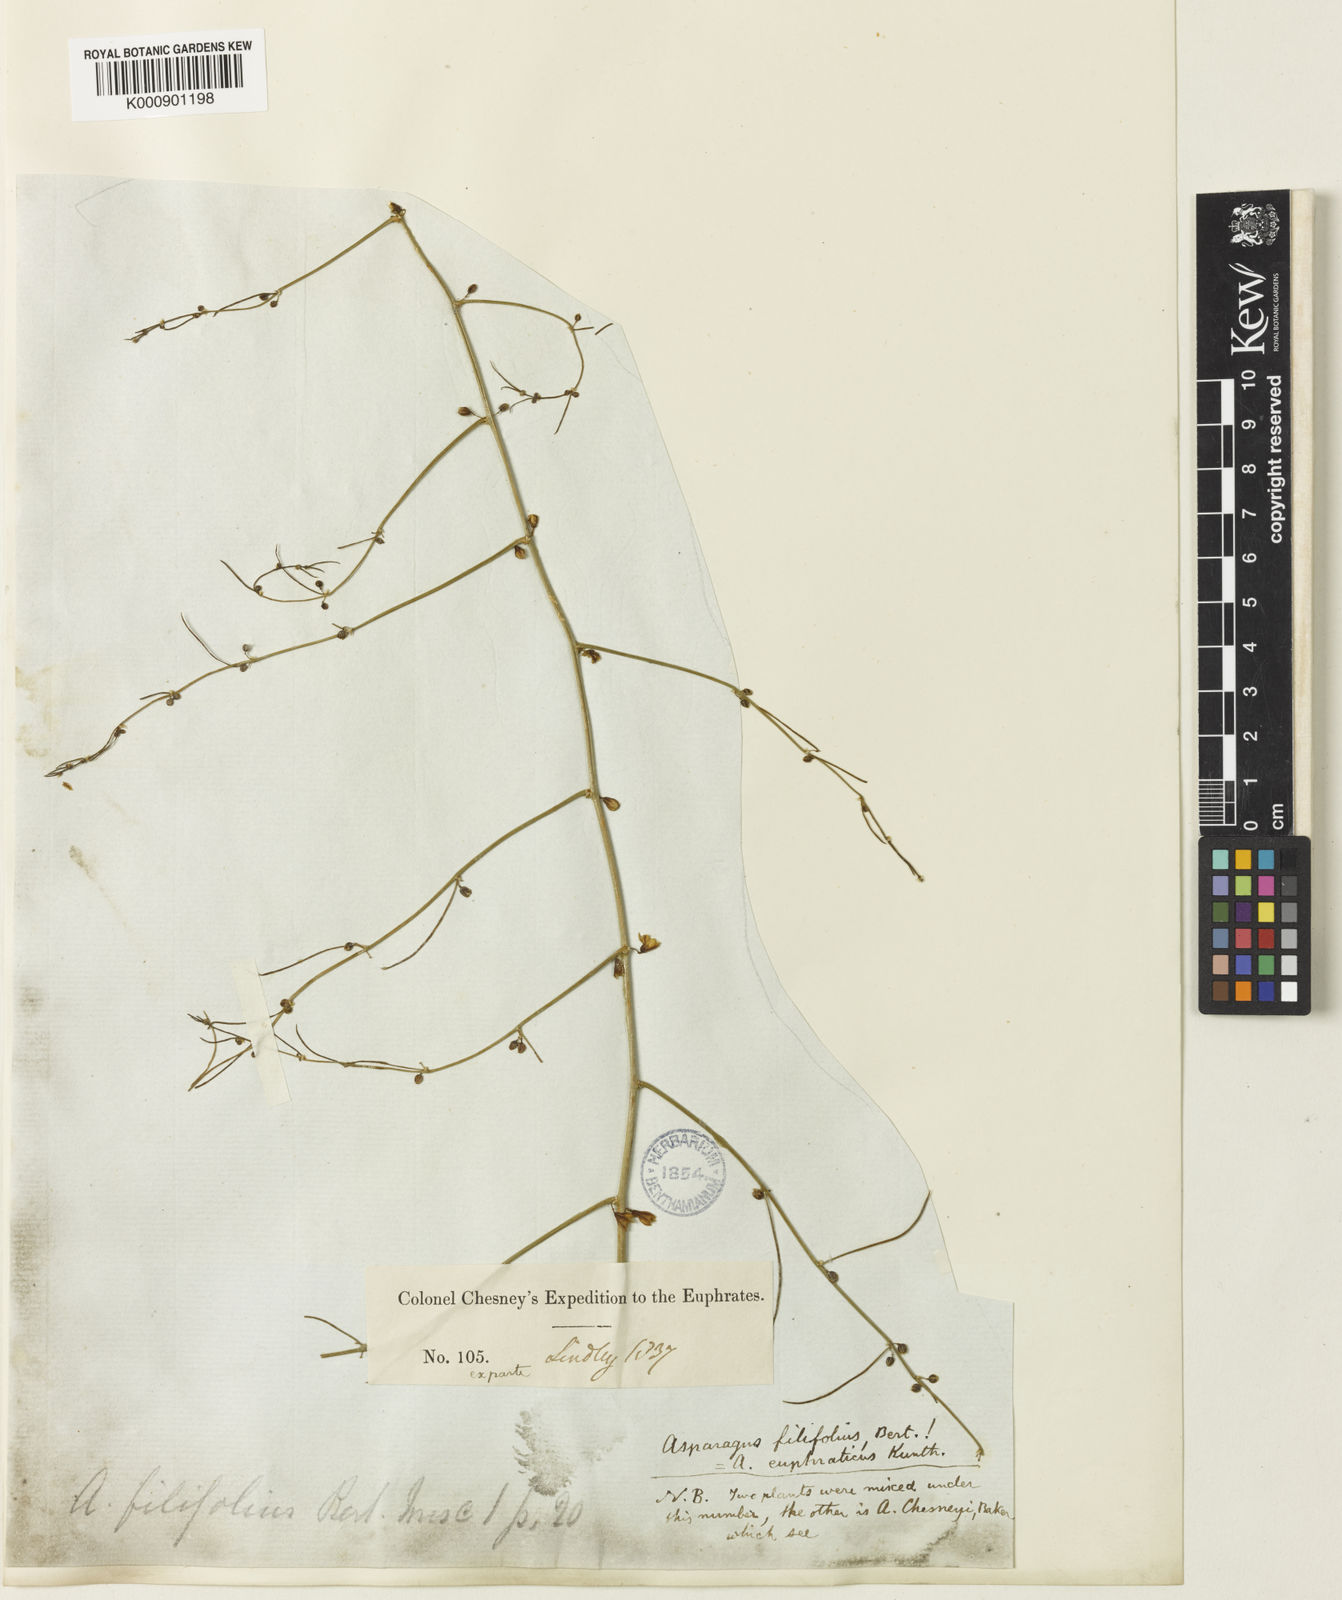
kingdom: Plantae
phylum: Tracheophyta
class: Liliopsida
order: Asparagales
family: Asparagaceae
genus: Asparagus
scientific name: Asparagus filifolius
